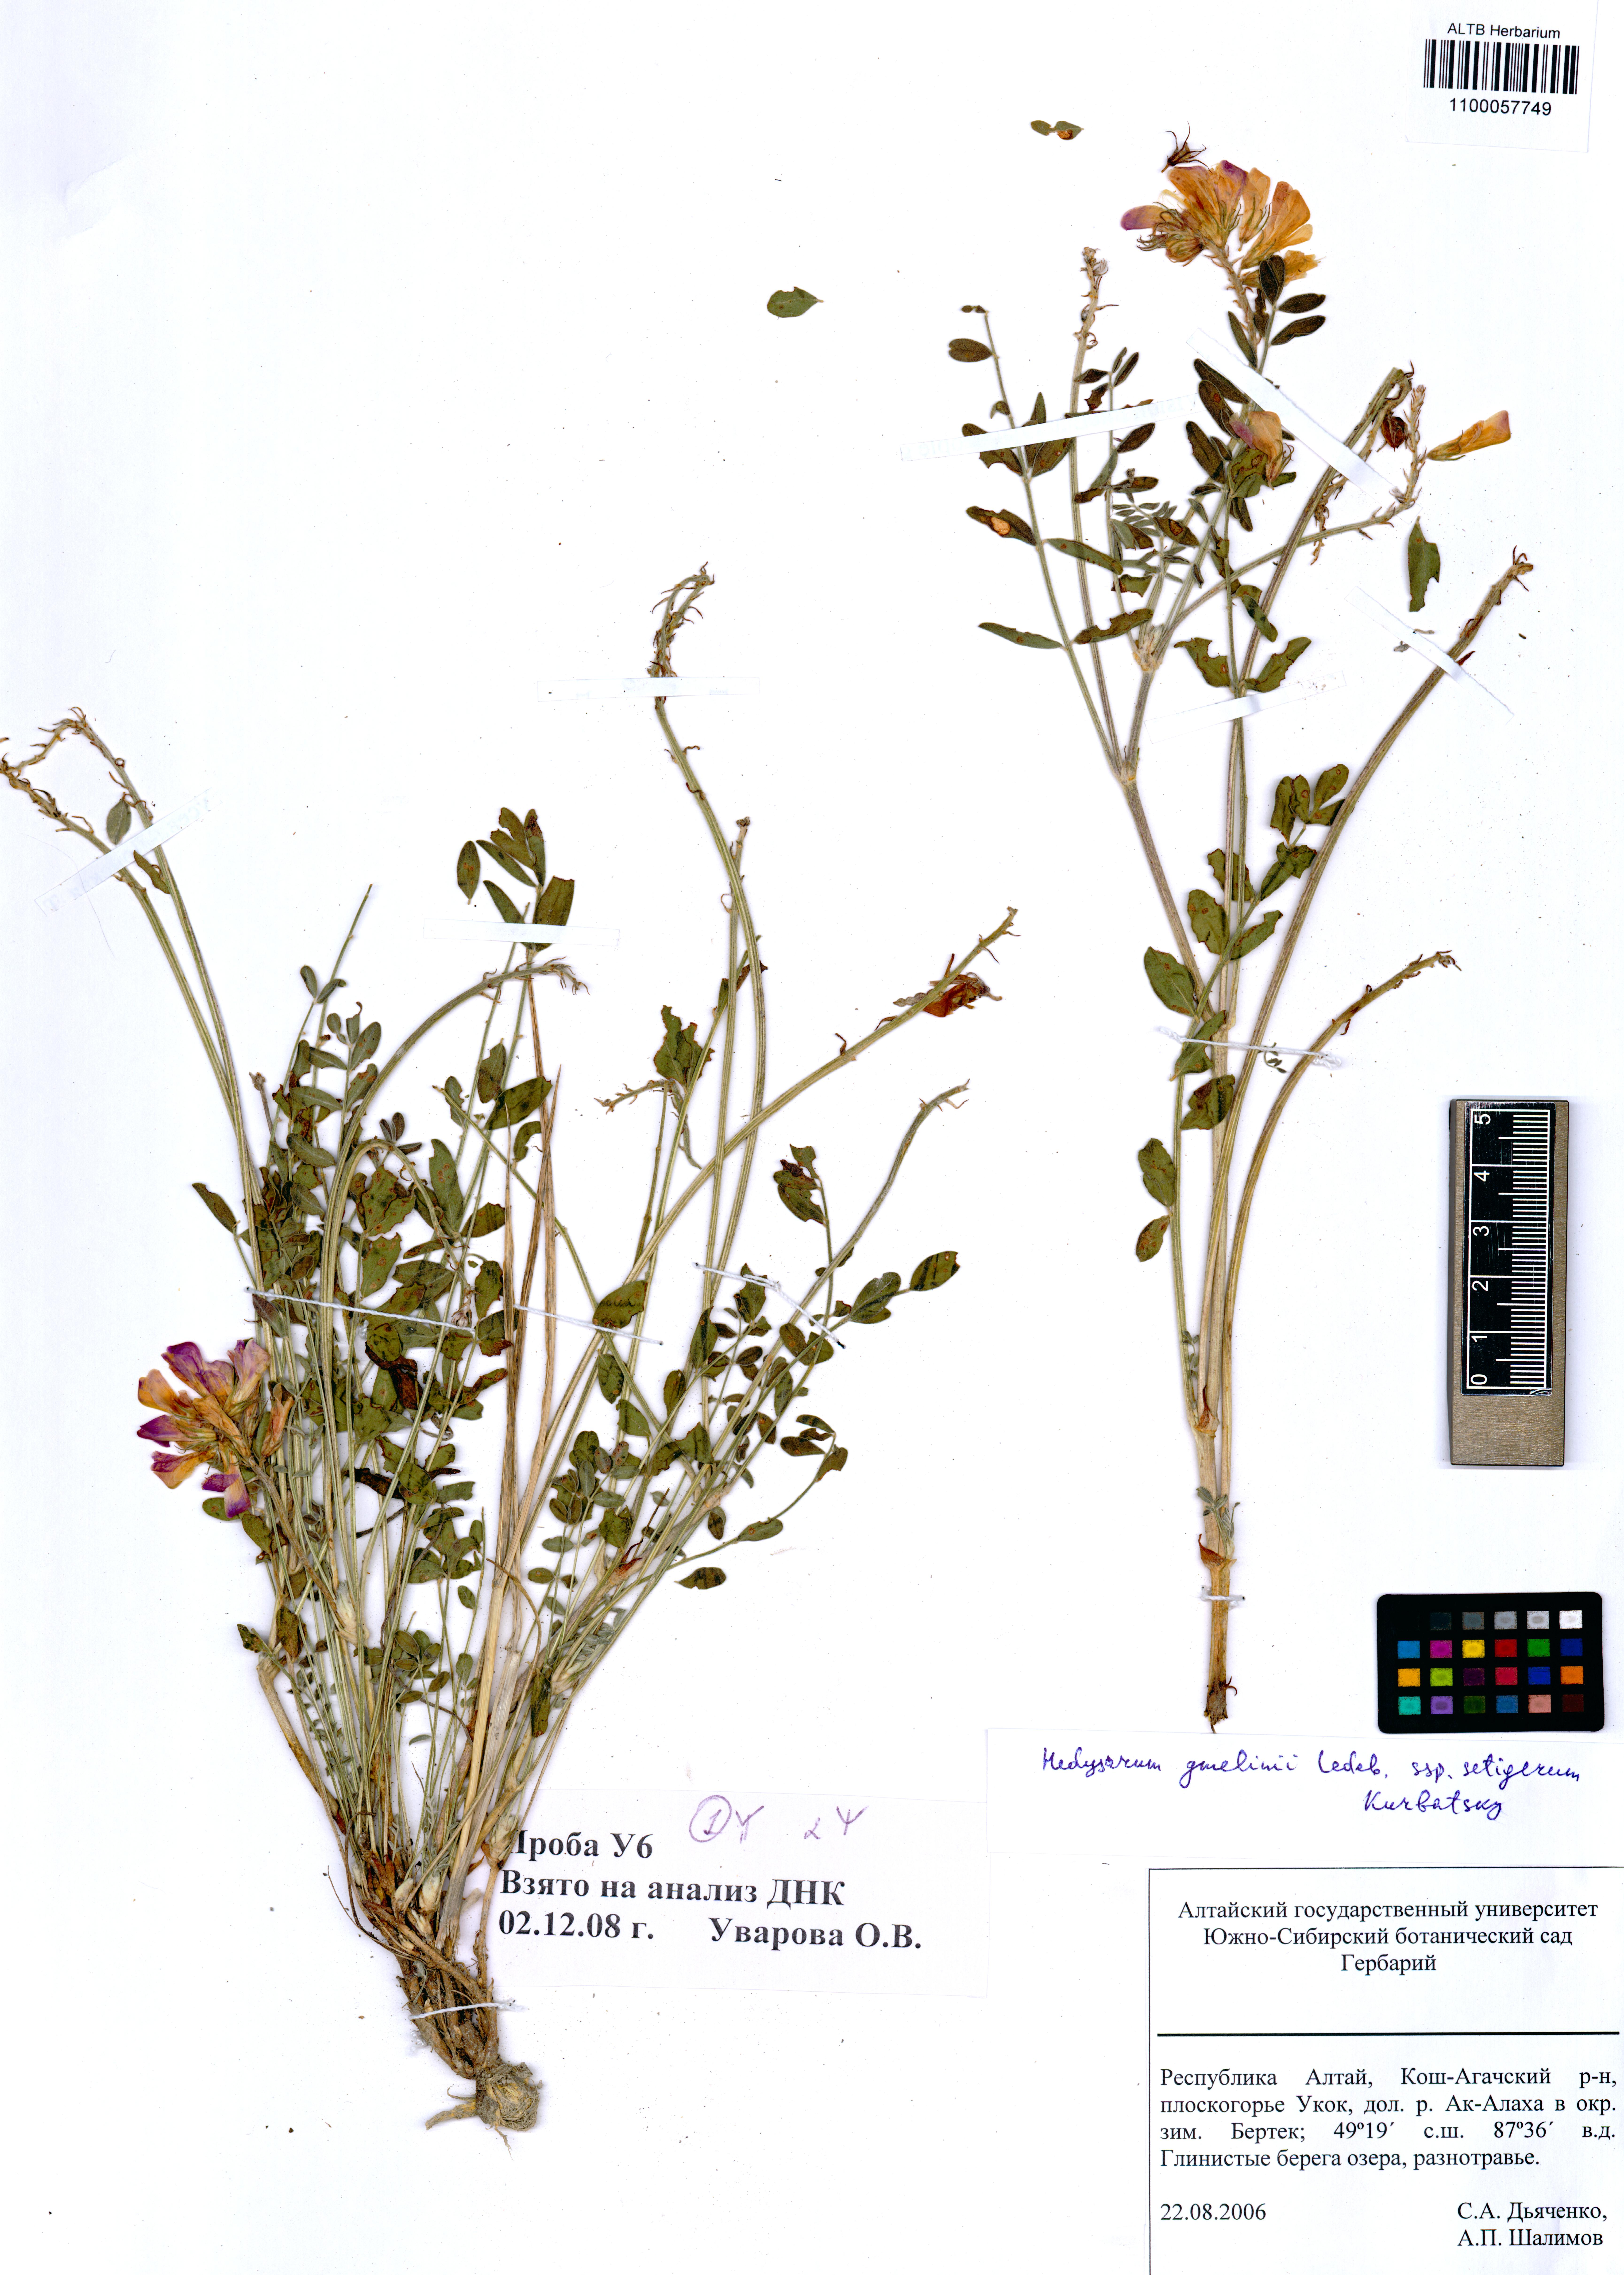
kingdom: Plantae
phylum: Tracheophyta
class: Magnoliopsida
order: Fabales
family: Fabaceae
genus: Hedysarum
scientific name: Hedysarum gmelinii
